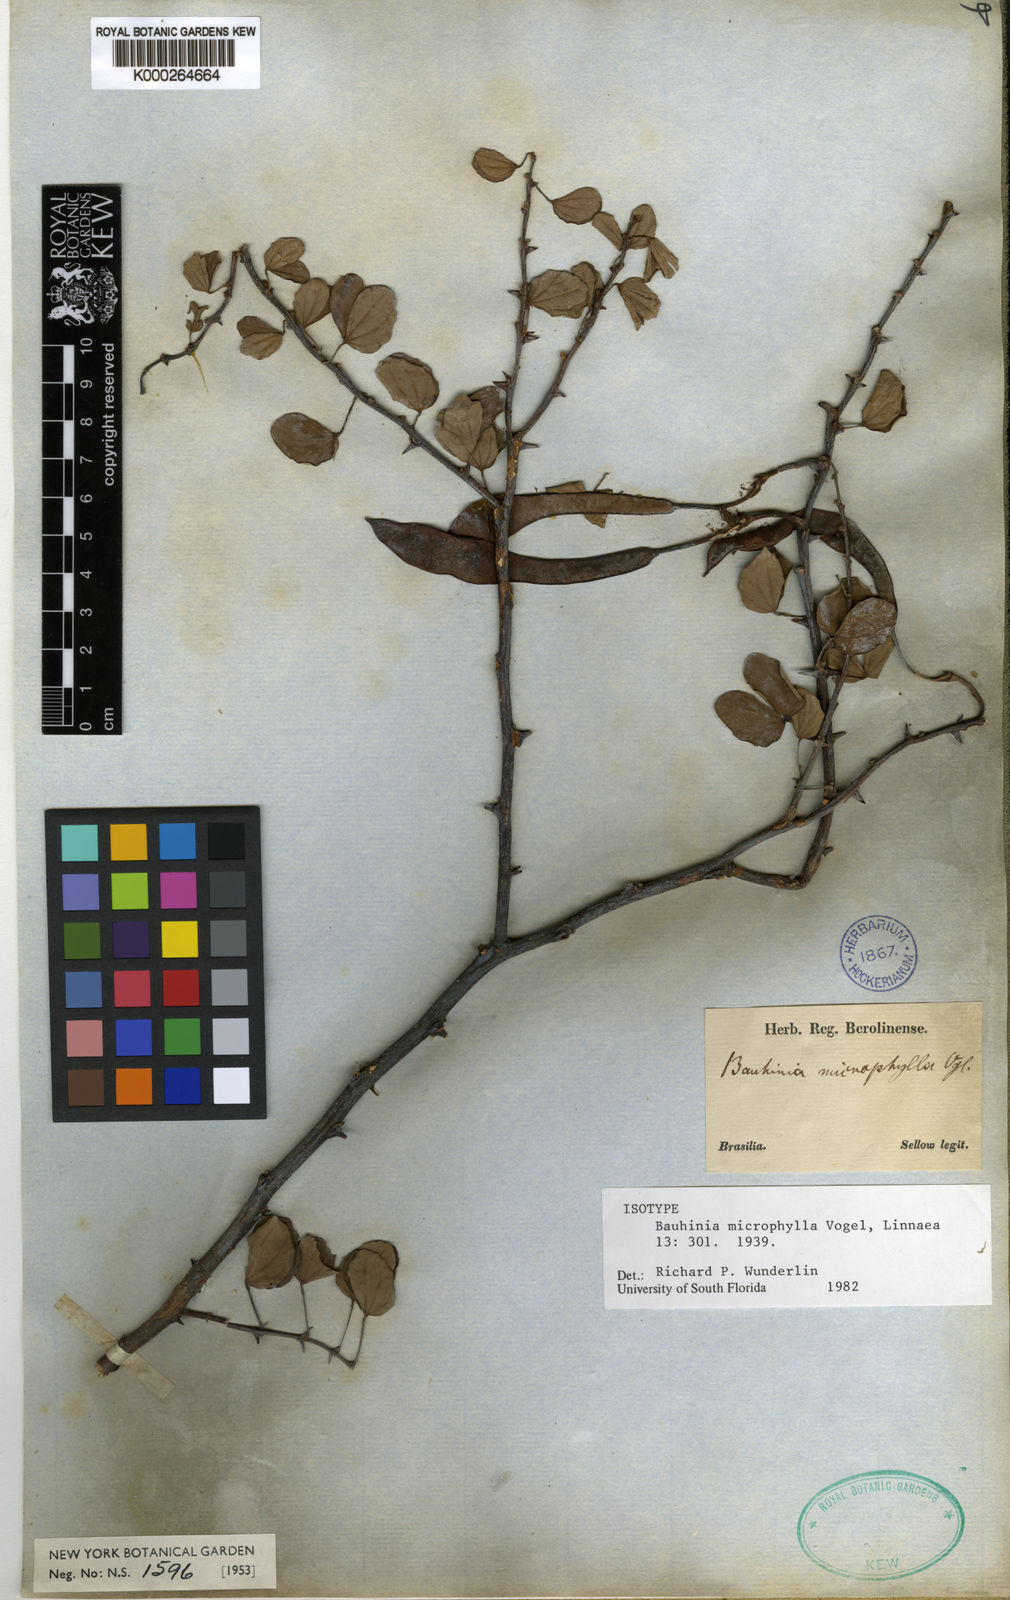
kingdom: Plantae
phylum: Tracheophyta
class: Magnoliopsida
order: Fabales
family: Fabaceae
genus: Bauhinia
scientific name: Bauhinia bauhinioides
